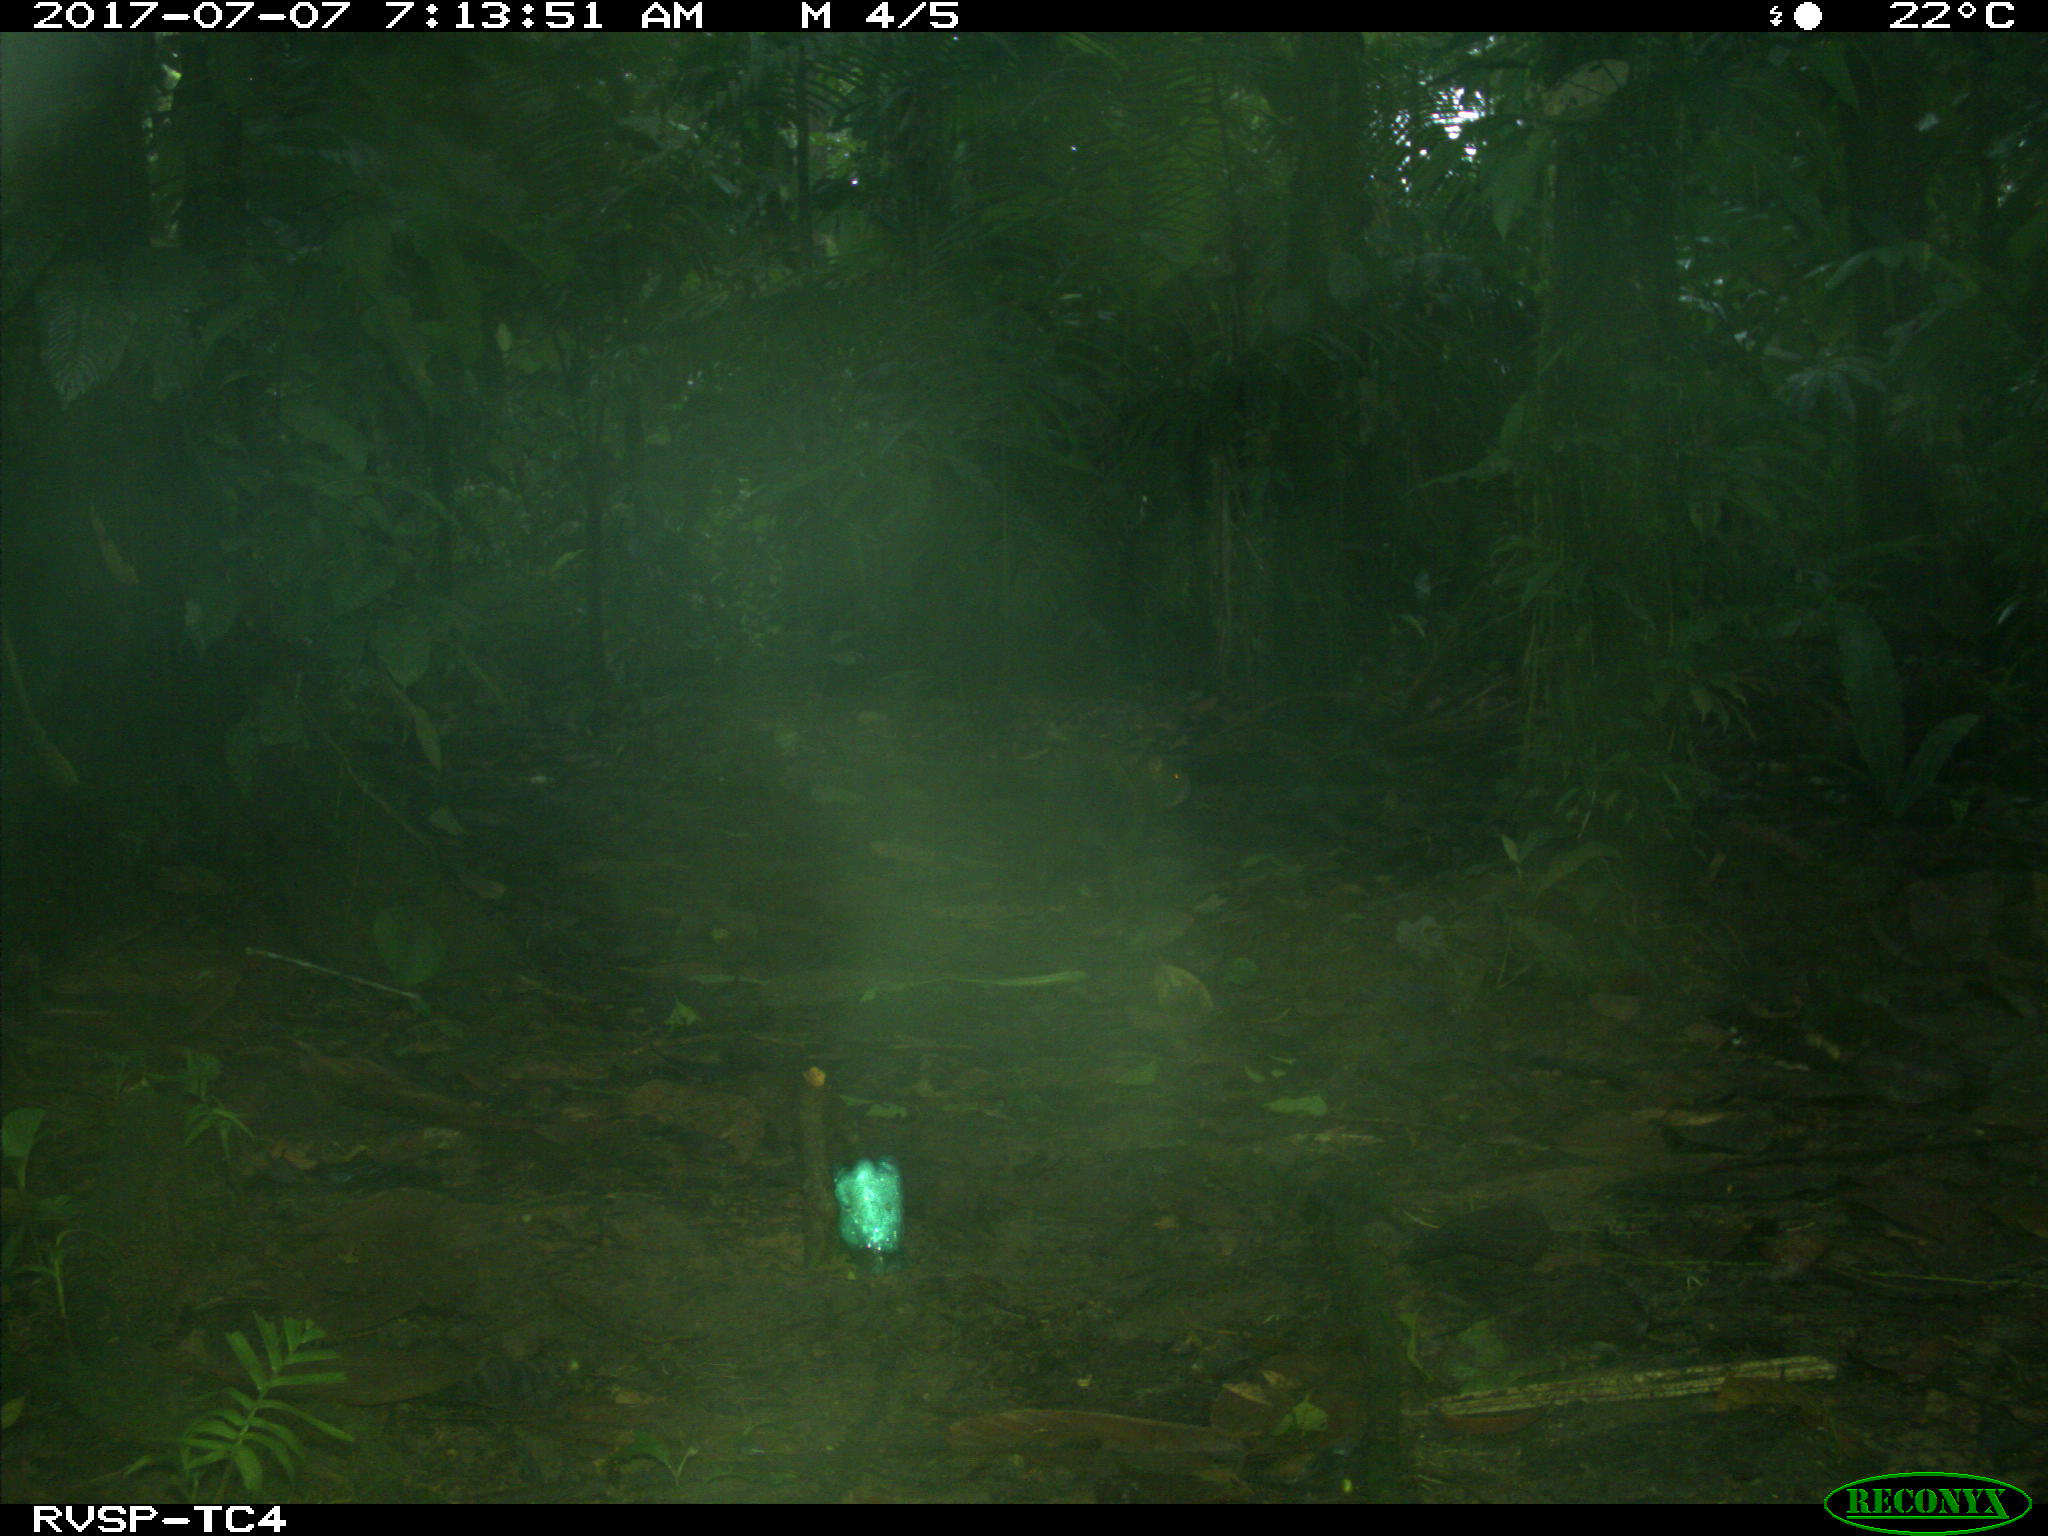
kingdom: Animalia
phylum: Chordata
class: Mammalia
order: Rodentia
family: Dasyproctidae
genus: Dasyprocta
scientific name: Dasyprocta punctata
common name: Central american agouti
